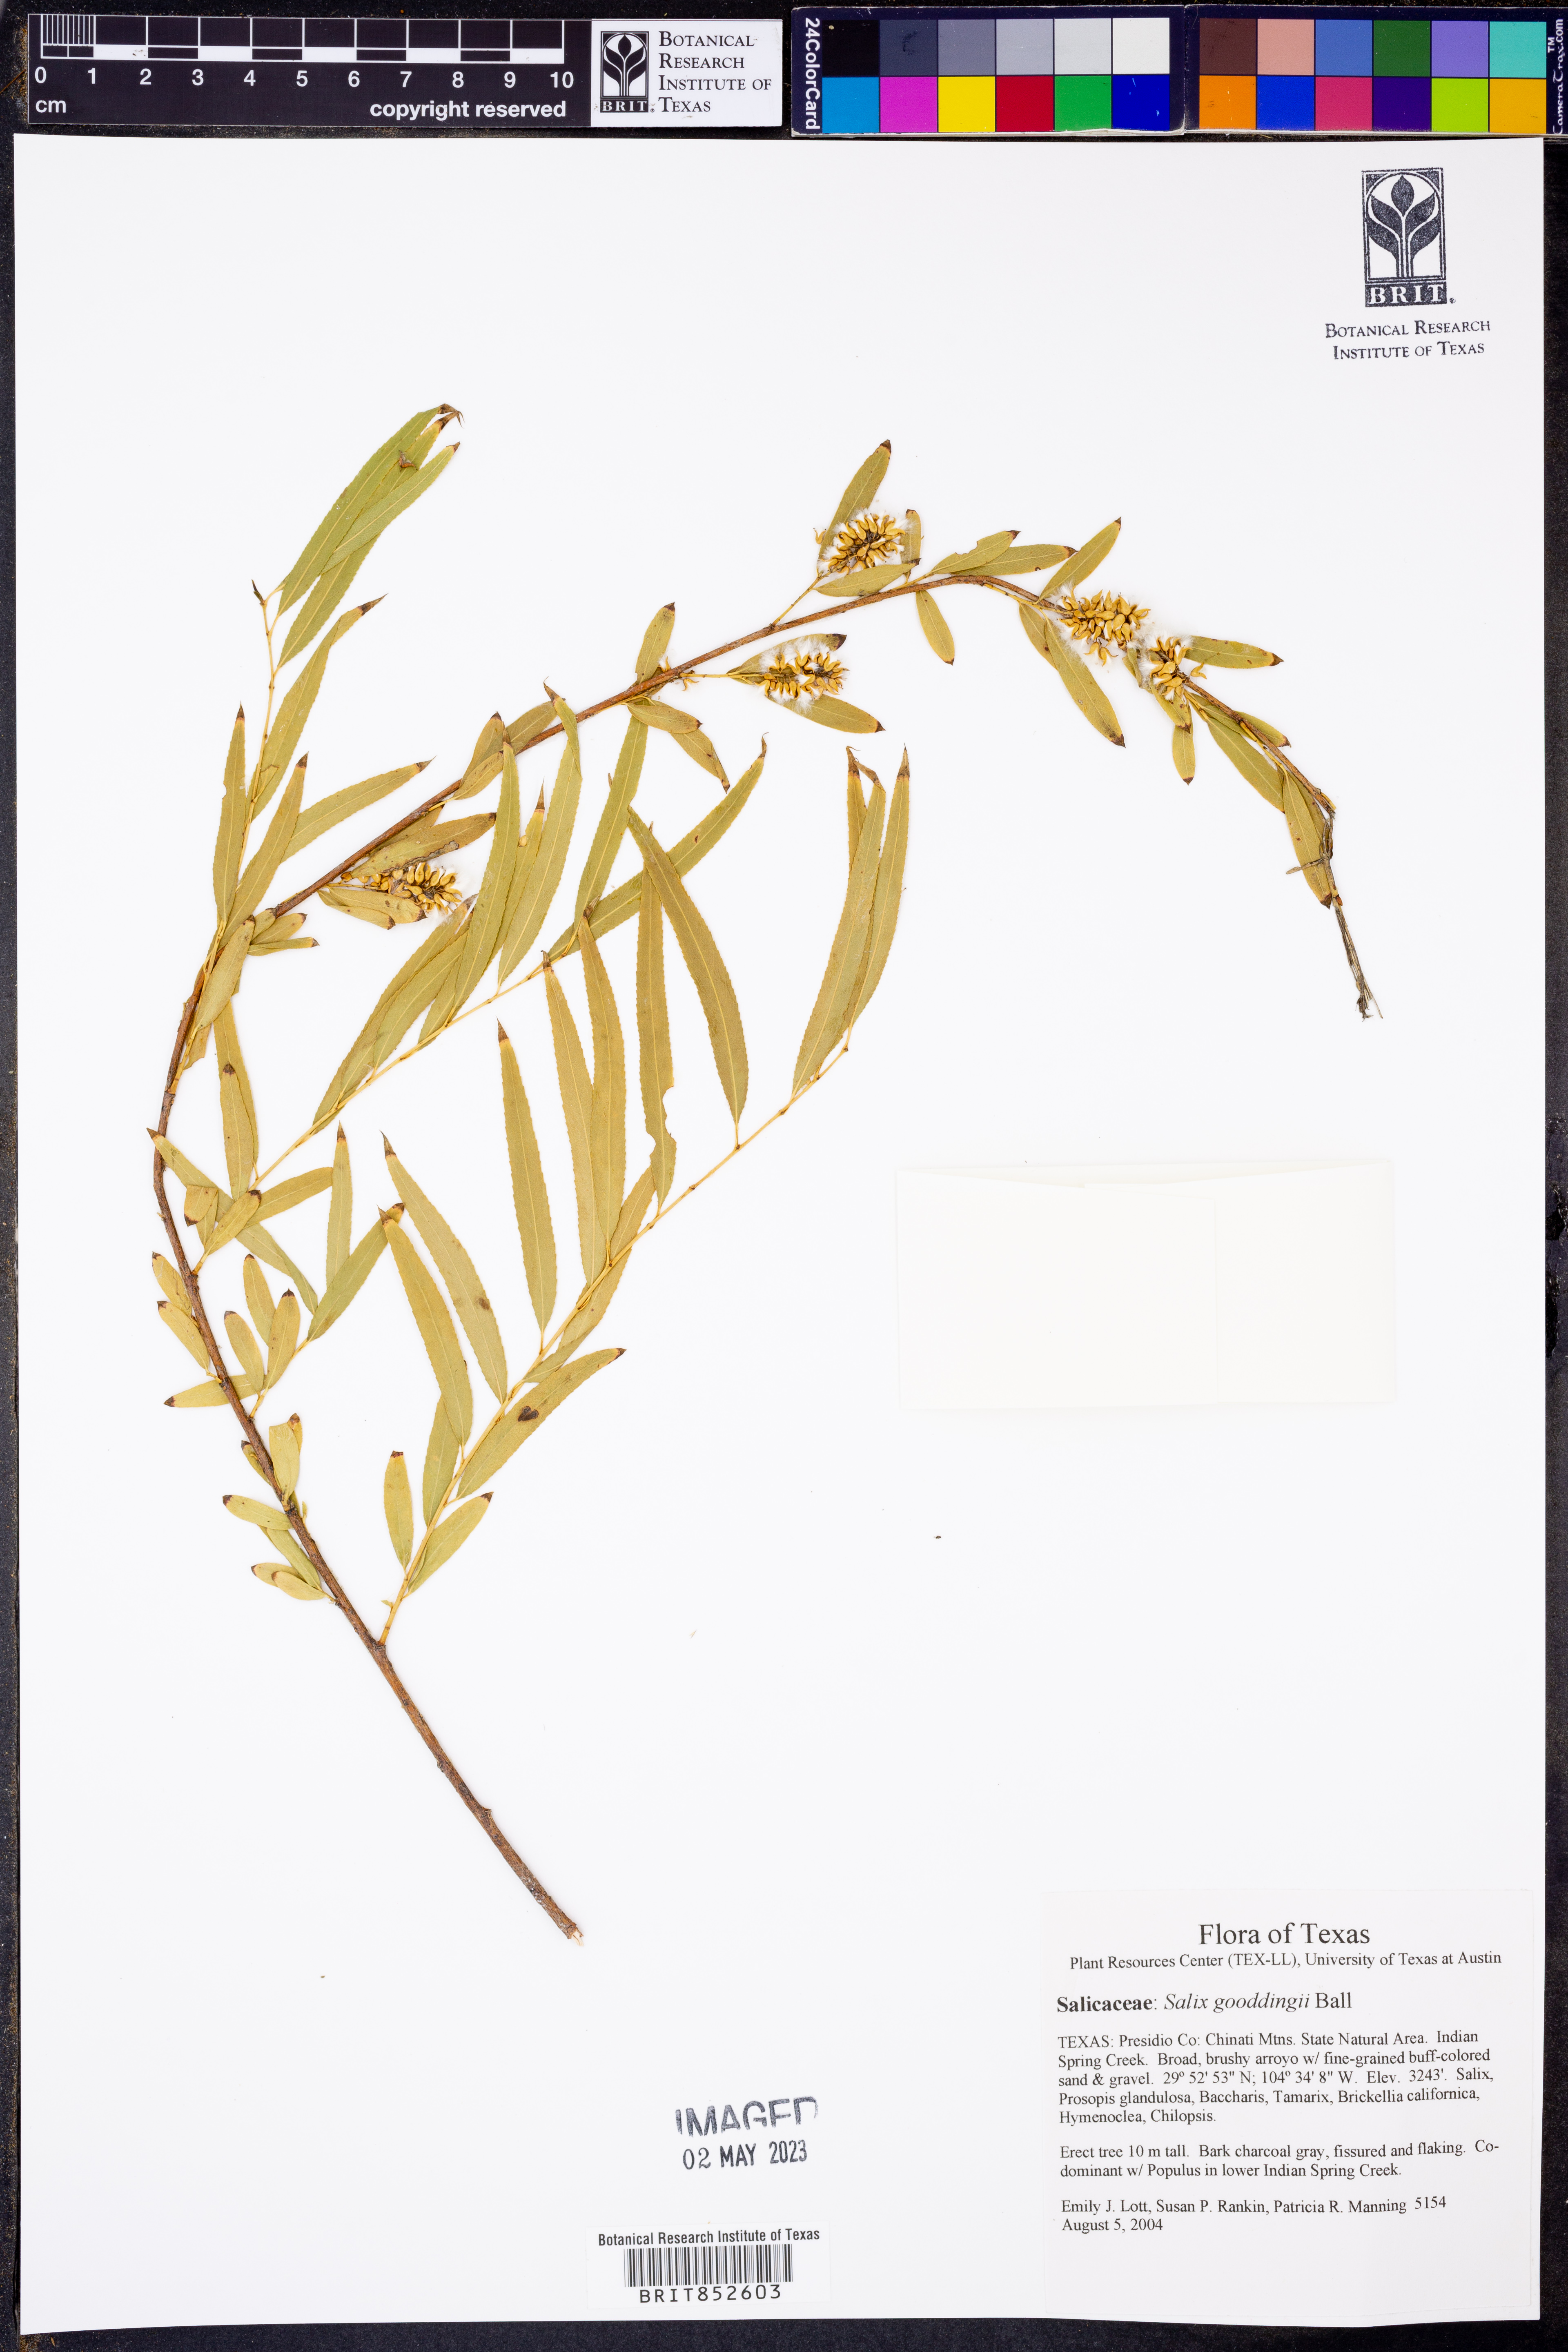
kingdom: Plantae
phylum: Tracheophyta
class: Magnoliopsida
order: Malpighiales
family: Salicaceae
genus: Salix
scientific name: Salix gooddingii
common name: Goodding's willow
